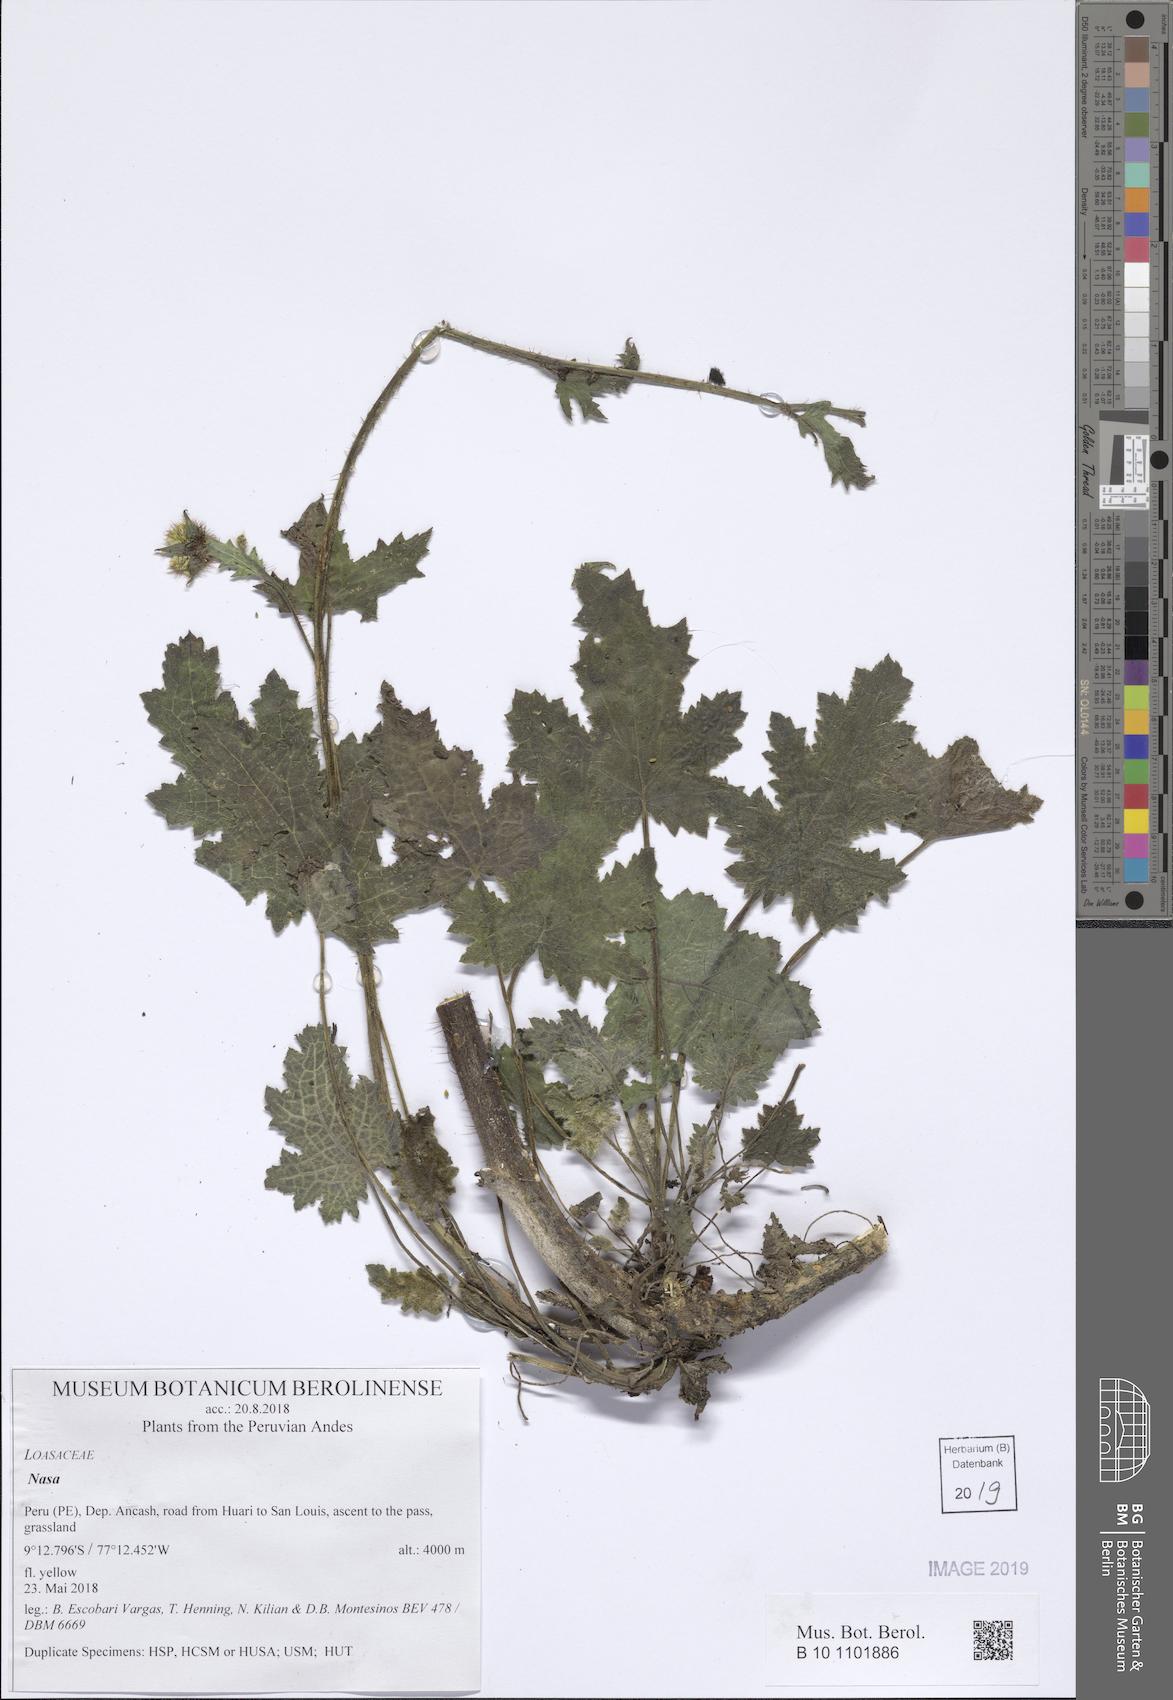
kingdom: Plantae
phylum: Tracheophyta
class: Magnoliopsida
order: Cornales
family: Loasaceae
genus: Nasa
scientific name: Nasa ranunculifolia
